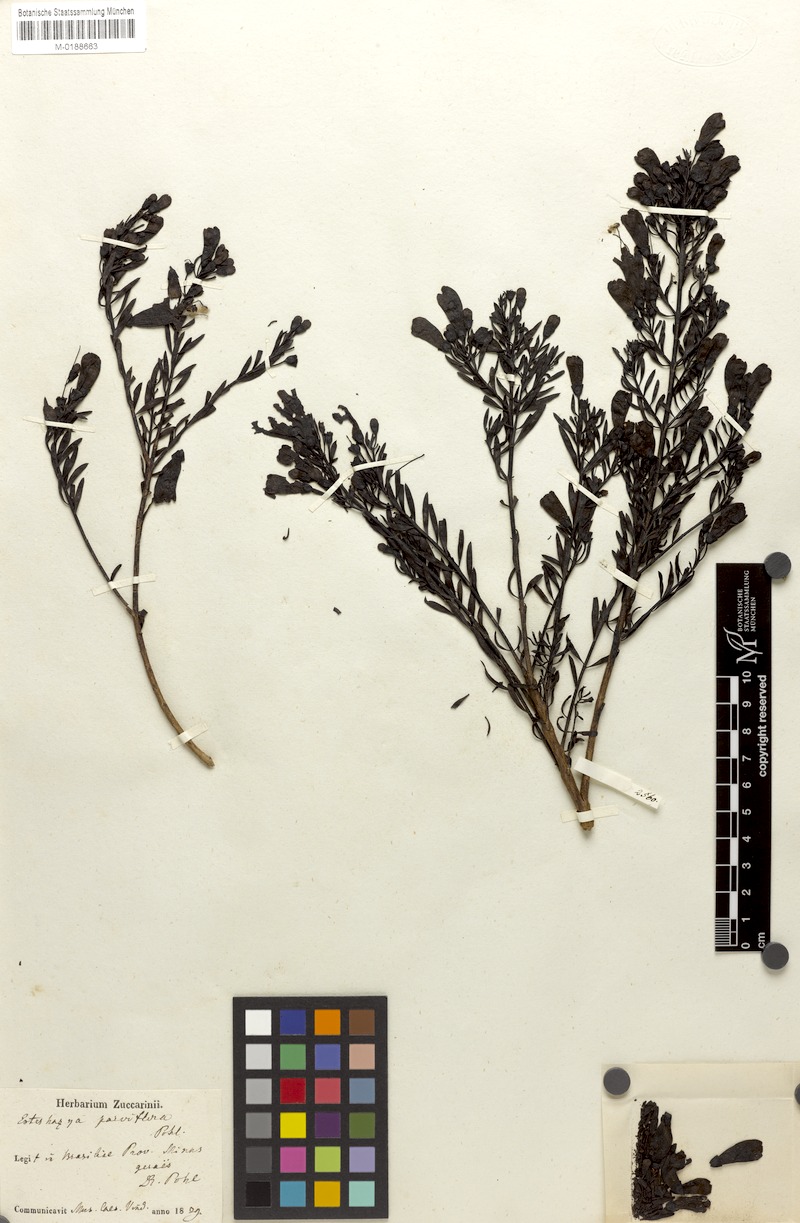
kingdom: Plantae
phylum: Tracheophyta
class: Magnoliopsida
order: Lamiales
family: Orobanchaceae
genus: Esterhazya
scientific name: Esterhazya
